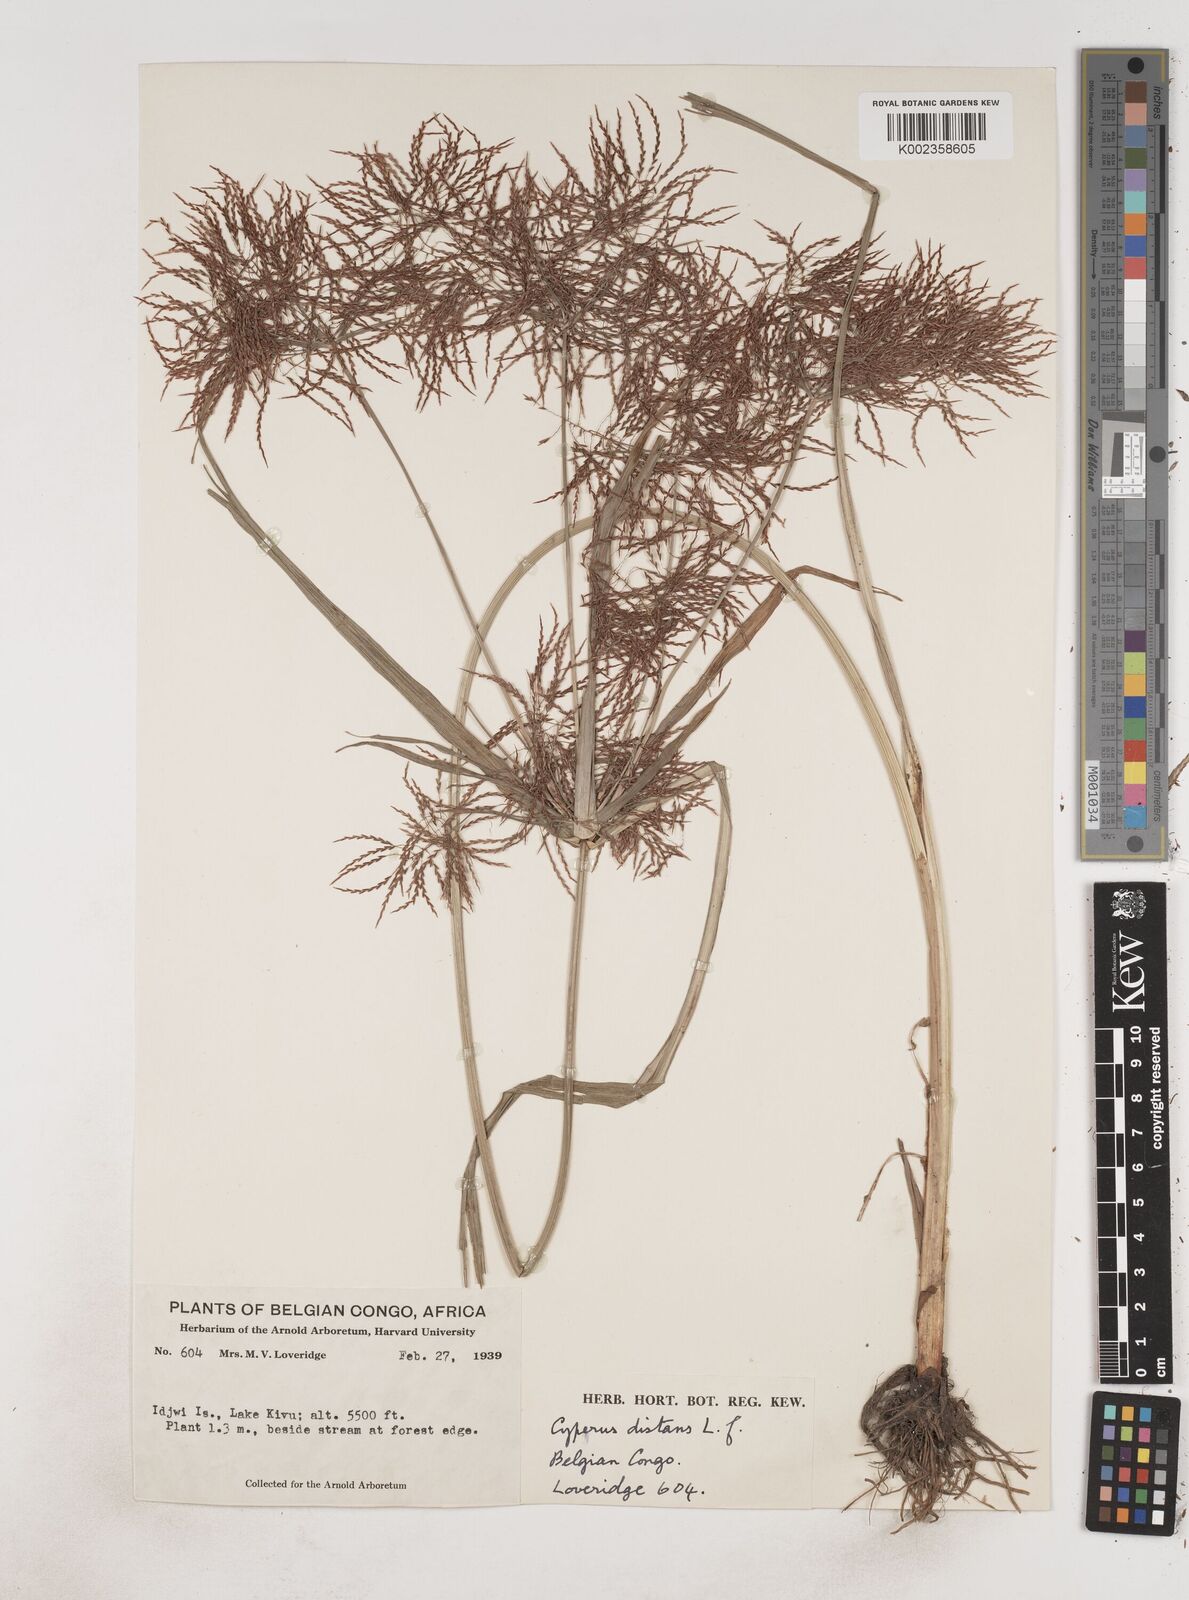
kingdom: Plantae
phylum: Tracheophyta
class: Liliopsida
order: Poales
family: Cyperaceae
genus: Cyperus
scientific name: Cyperus distans
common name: Slender cyperus
